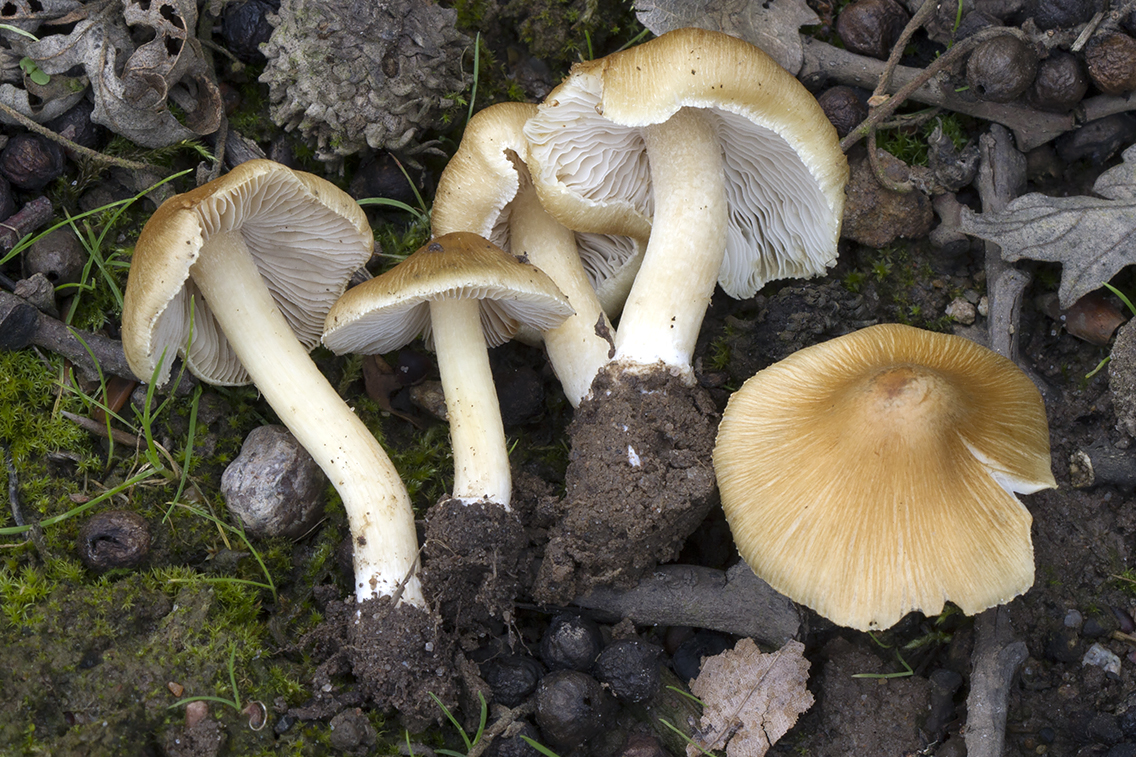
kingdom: Fungi
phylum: Basidiomycota
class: Agaricomycetes
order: Agaricales
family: Inocybaceae
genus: Inosperma
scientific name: Inosperma kuthanii
